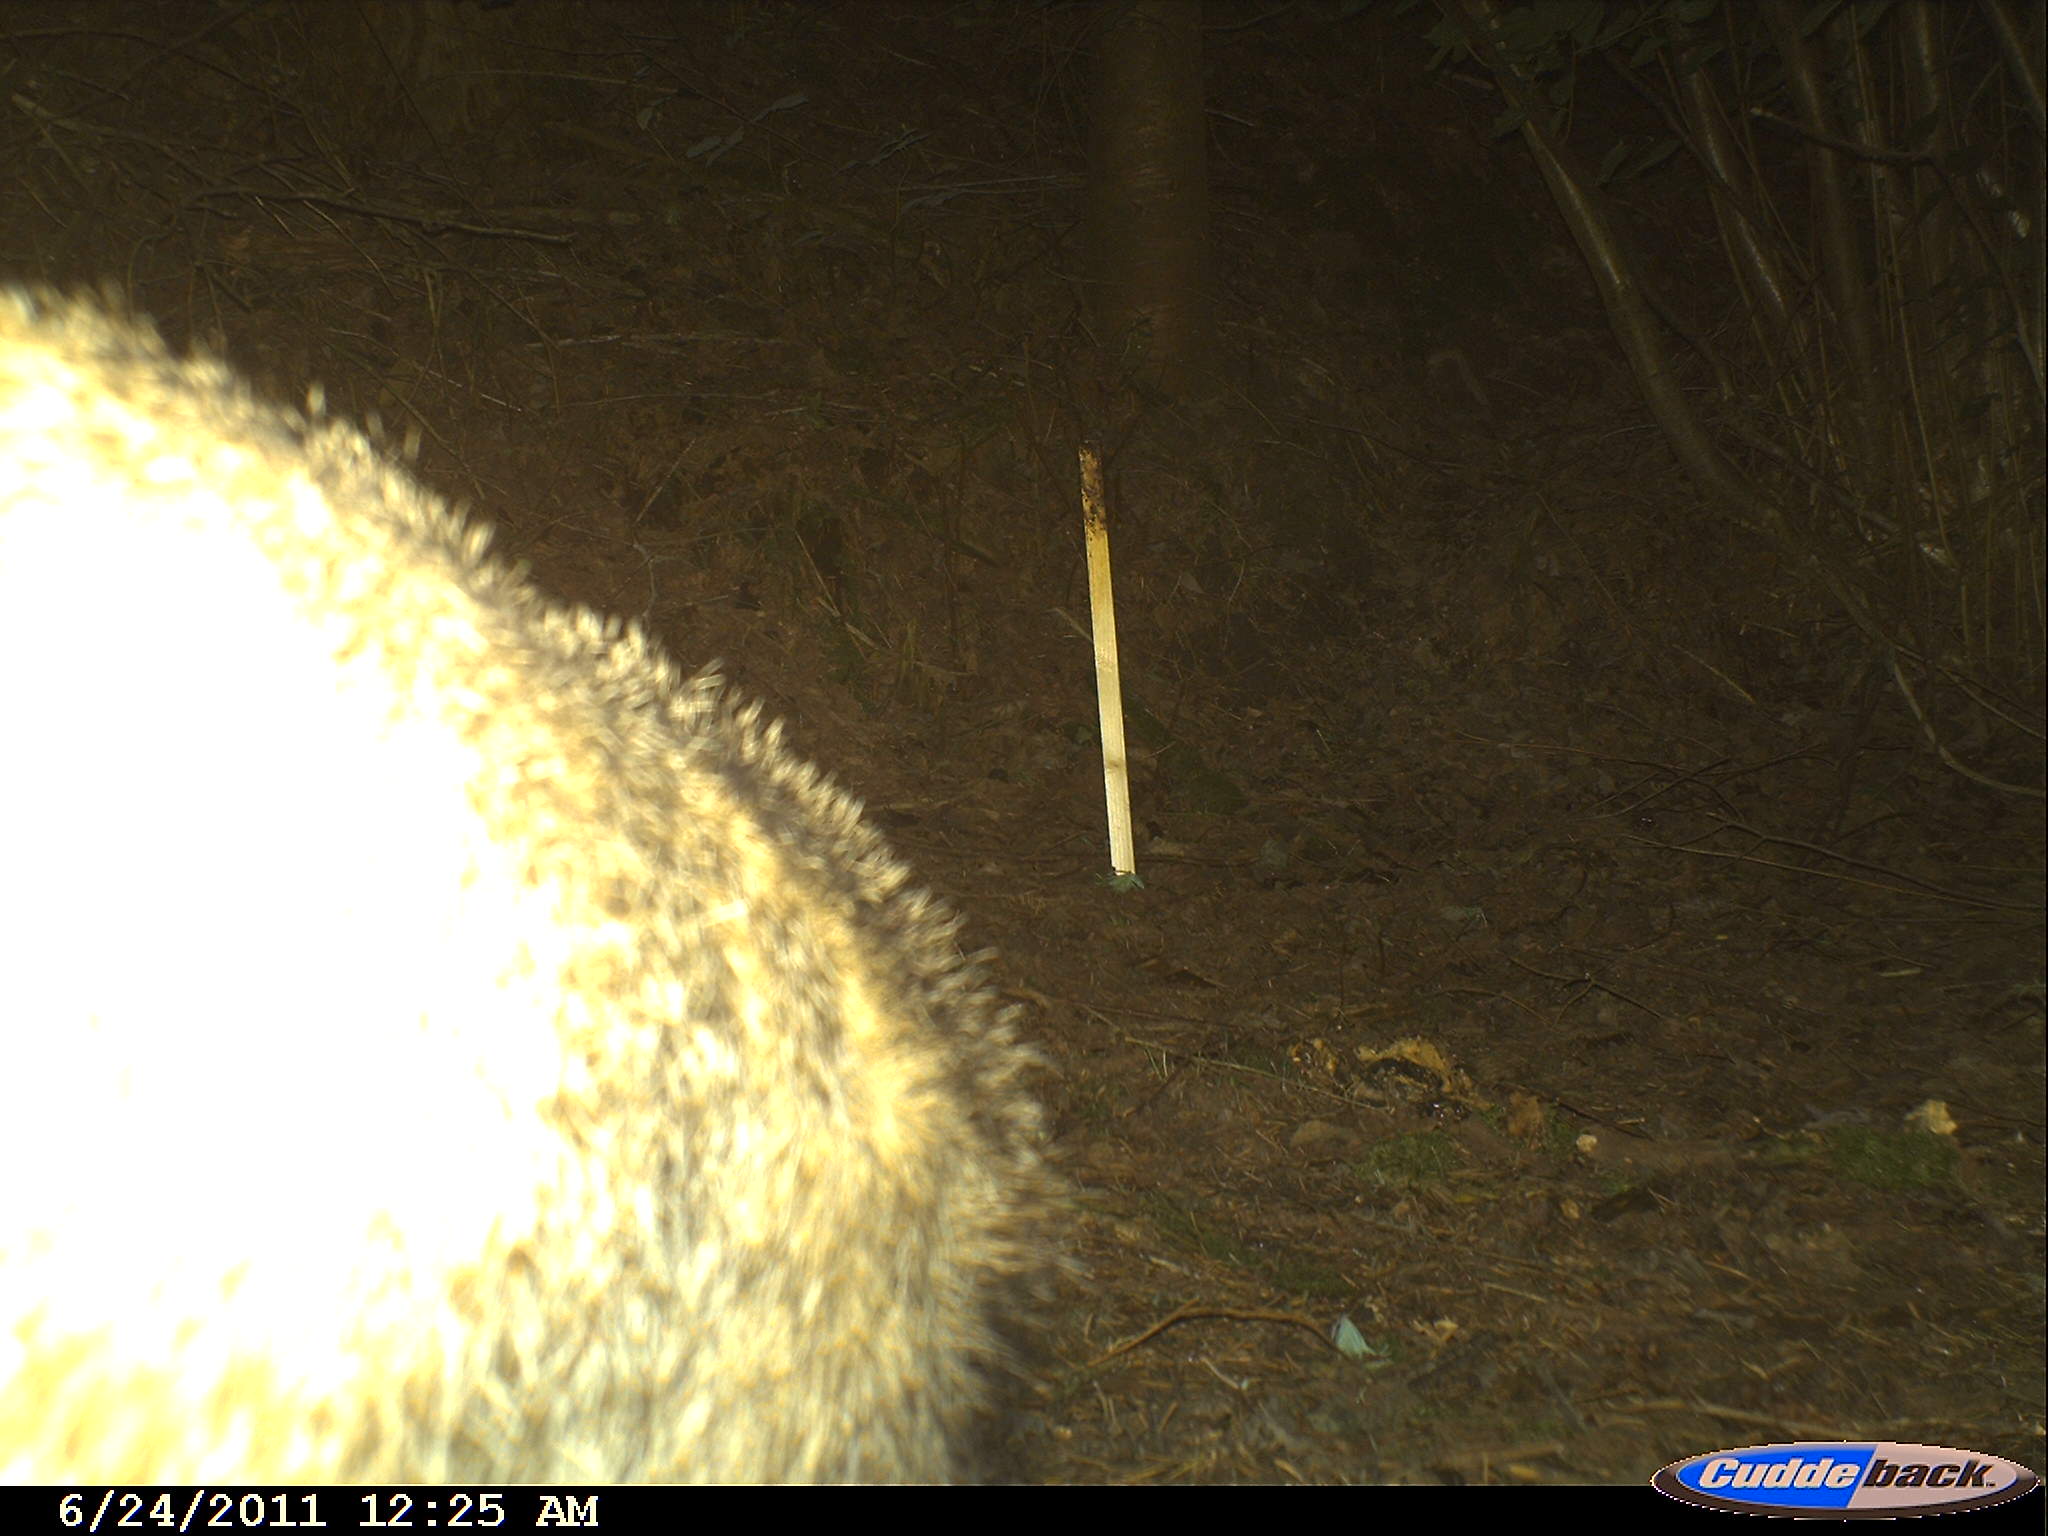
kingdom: Animalia
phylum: Chordata
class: Mammalia
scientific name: Mammalia
